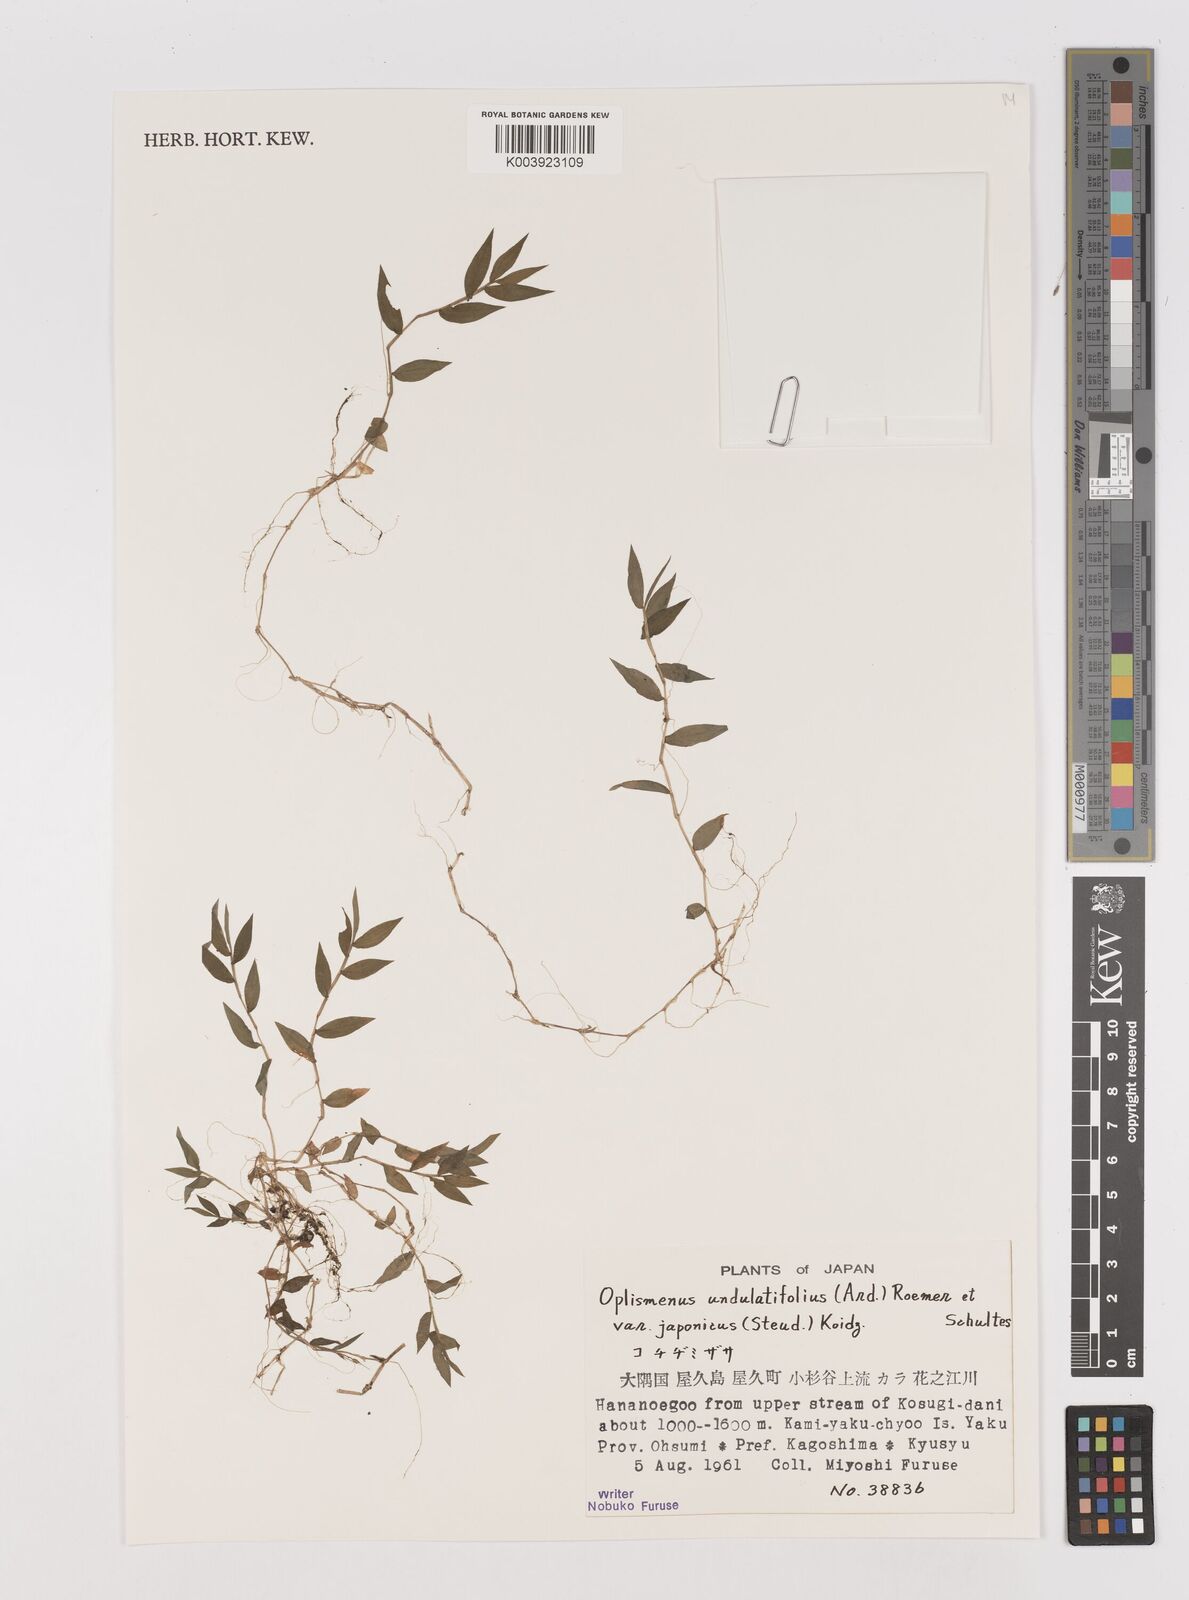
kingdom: Plantae
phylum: Tracheophyta
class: Liliopsida
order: Poales
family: Poaceae
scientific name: Poaceae
